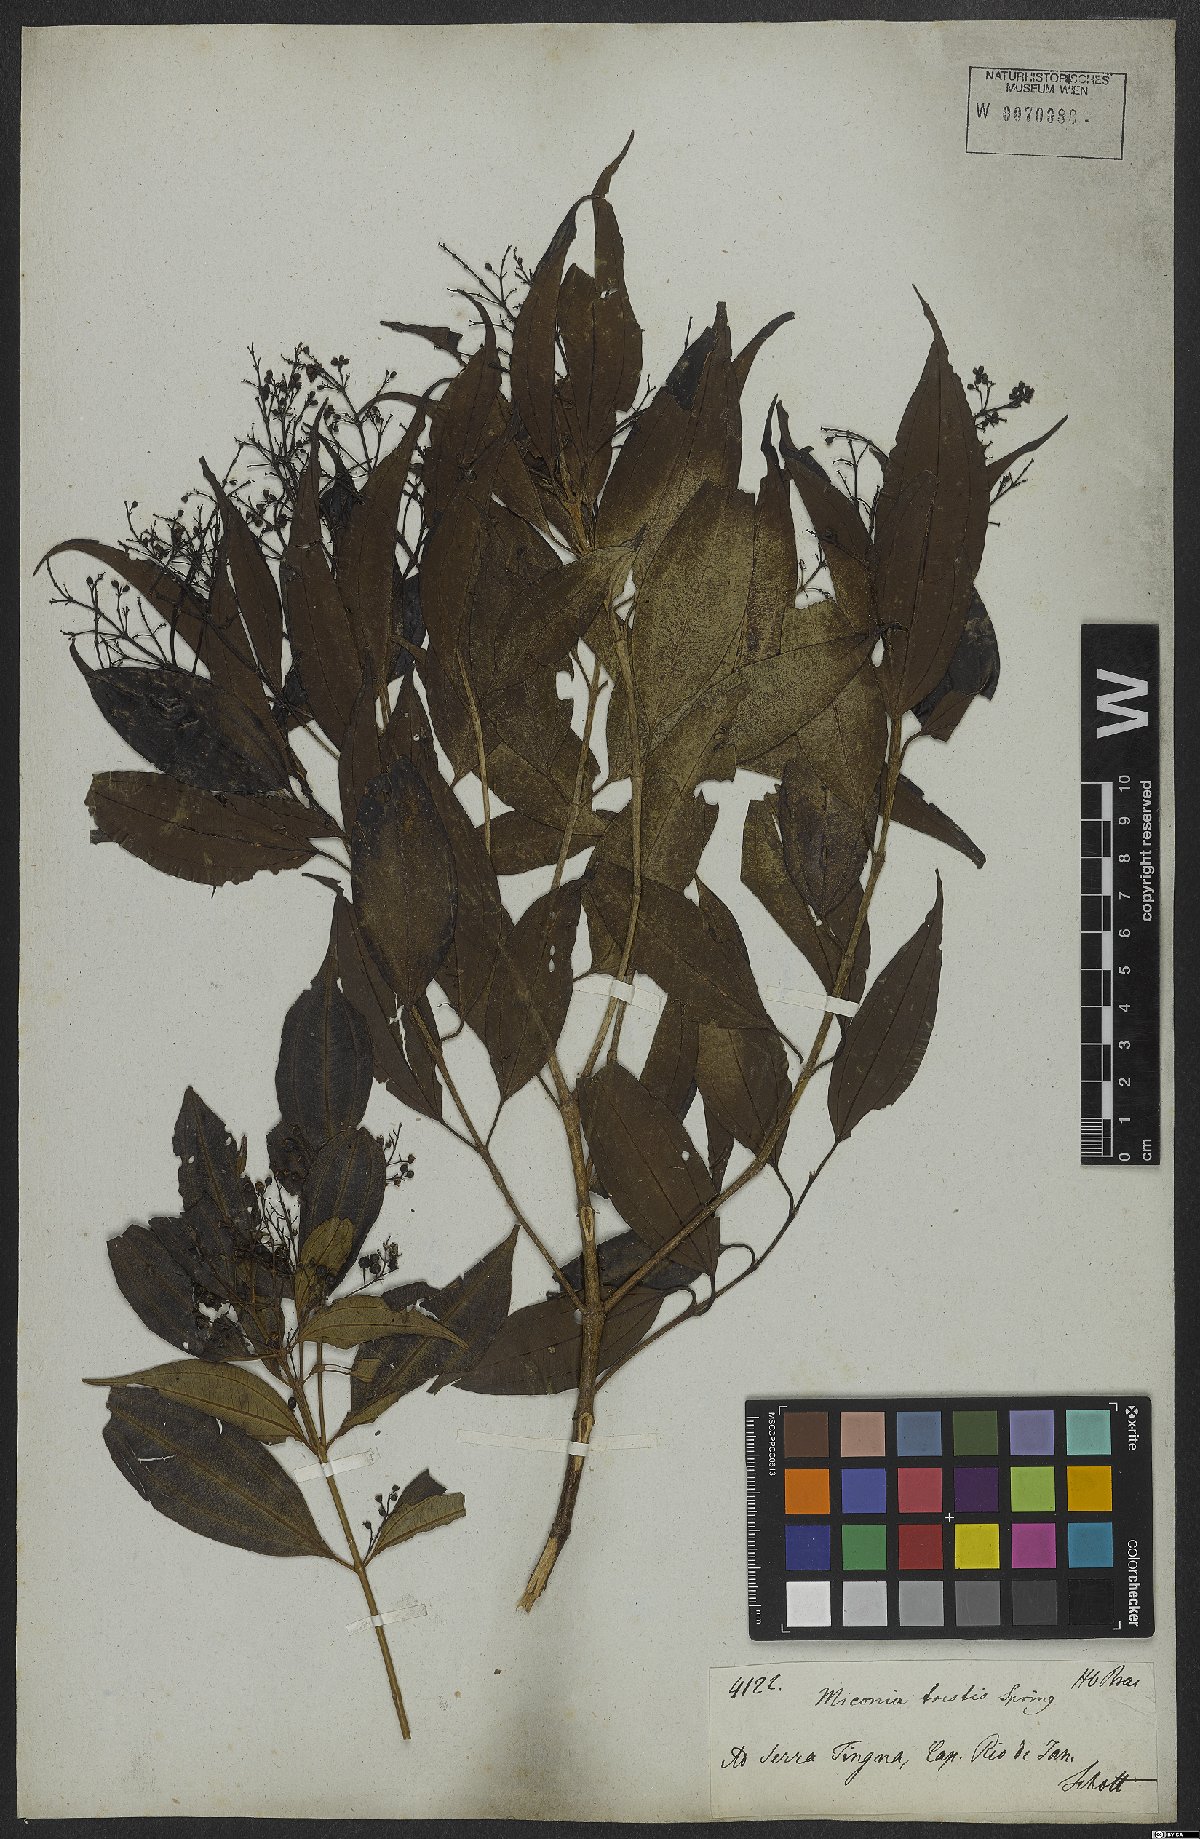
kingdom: Plantae
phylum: Tracheophyta
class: Magnoliopsida
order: Myrtales
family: Melastomataceae
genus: Miconia
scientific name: Miconia tristis
